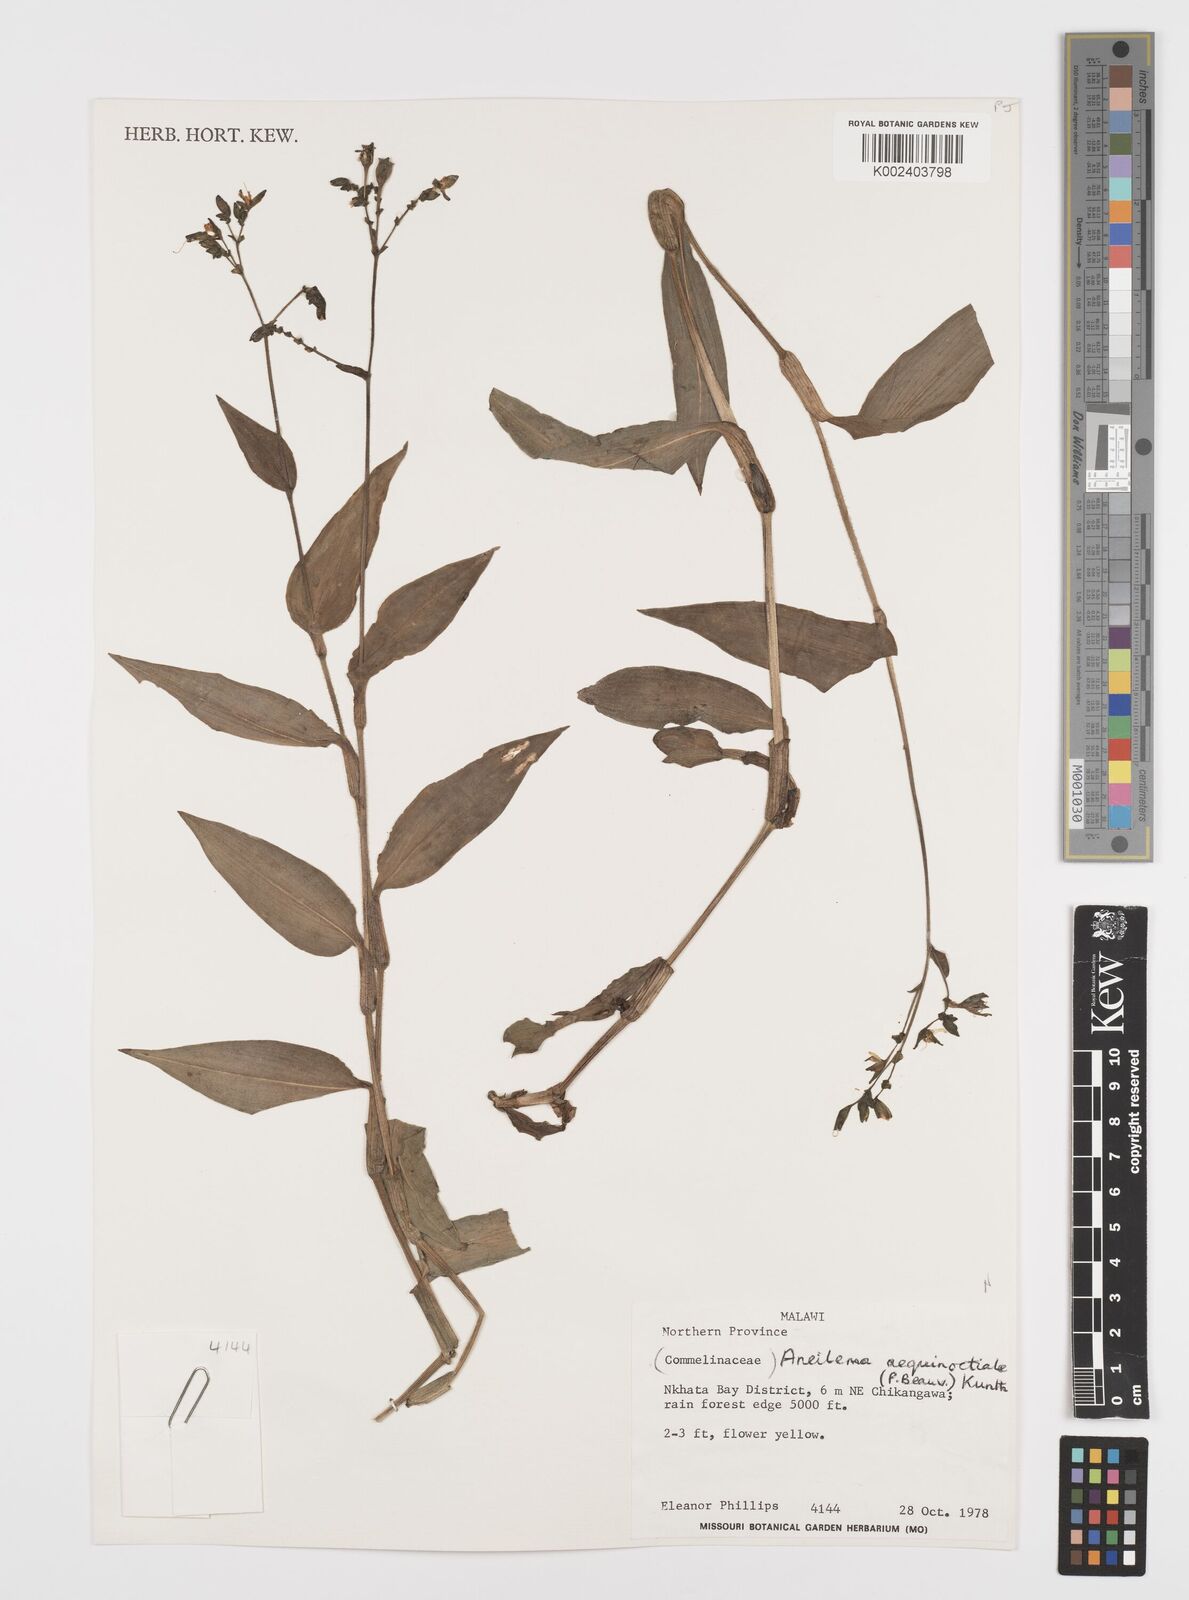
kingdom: Plantae
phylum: Tracheophyta
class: Liliopsida
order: Commelinales
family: Commelinaceae
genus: Aneilema
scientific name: Aneilema aequinoctiale
